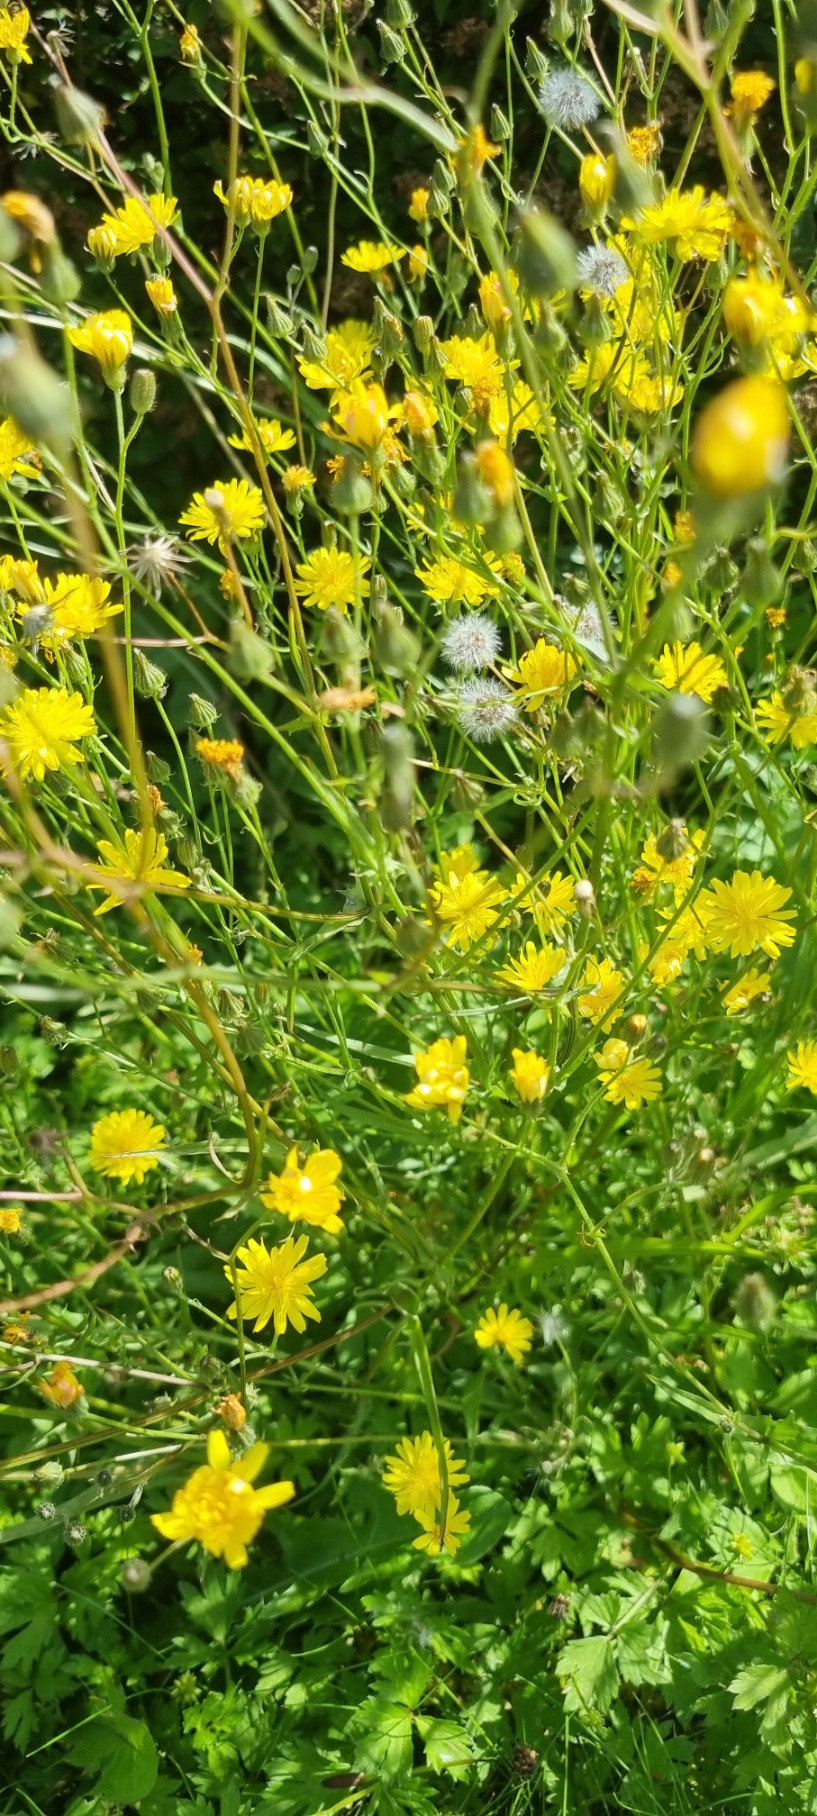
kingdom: Plantae
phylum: Tracheophyta
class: Magnoliopsida
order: Asterales
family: Asteraceae
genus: Crepis
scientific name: Crepis capillaris
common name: Grøn høgeskæg
